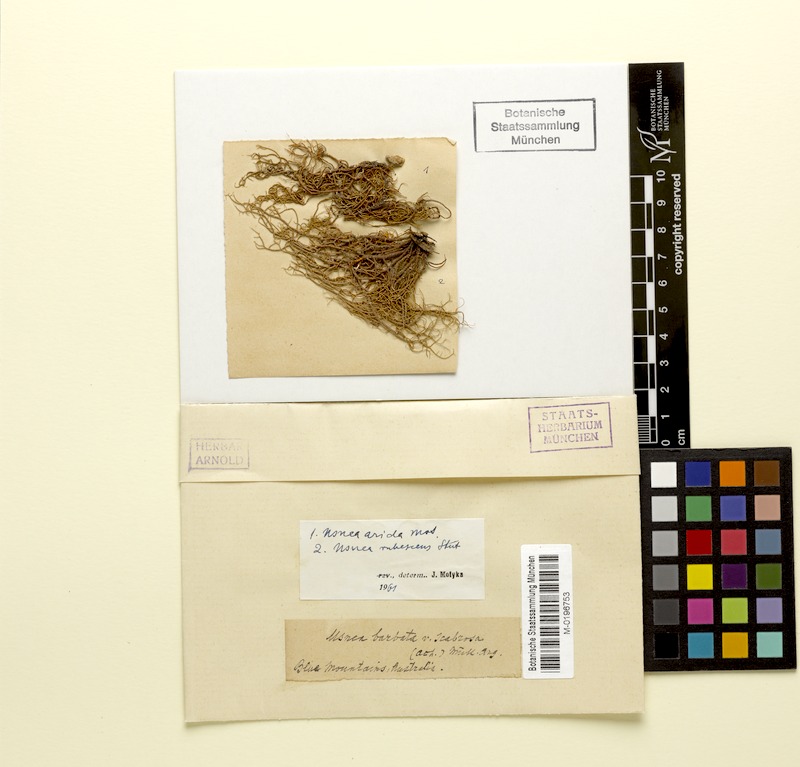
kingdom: Fungi
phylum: Ascomycota
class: Lecanoromycetes
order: Lecanorales
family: Parmeliaceae
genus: Usnea
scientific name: Usnea rubrotincta
